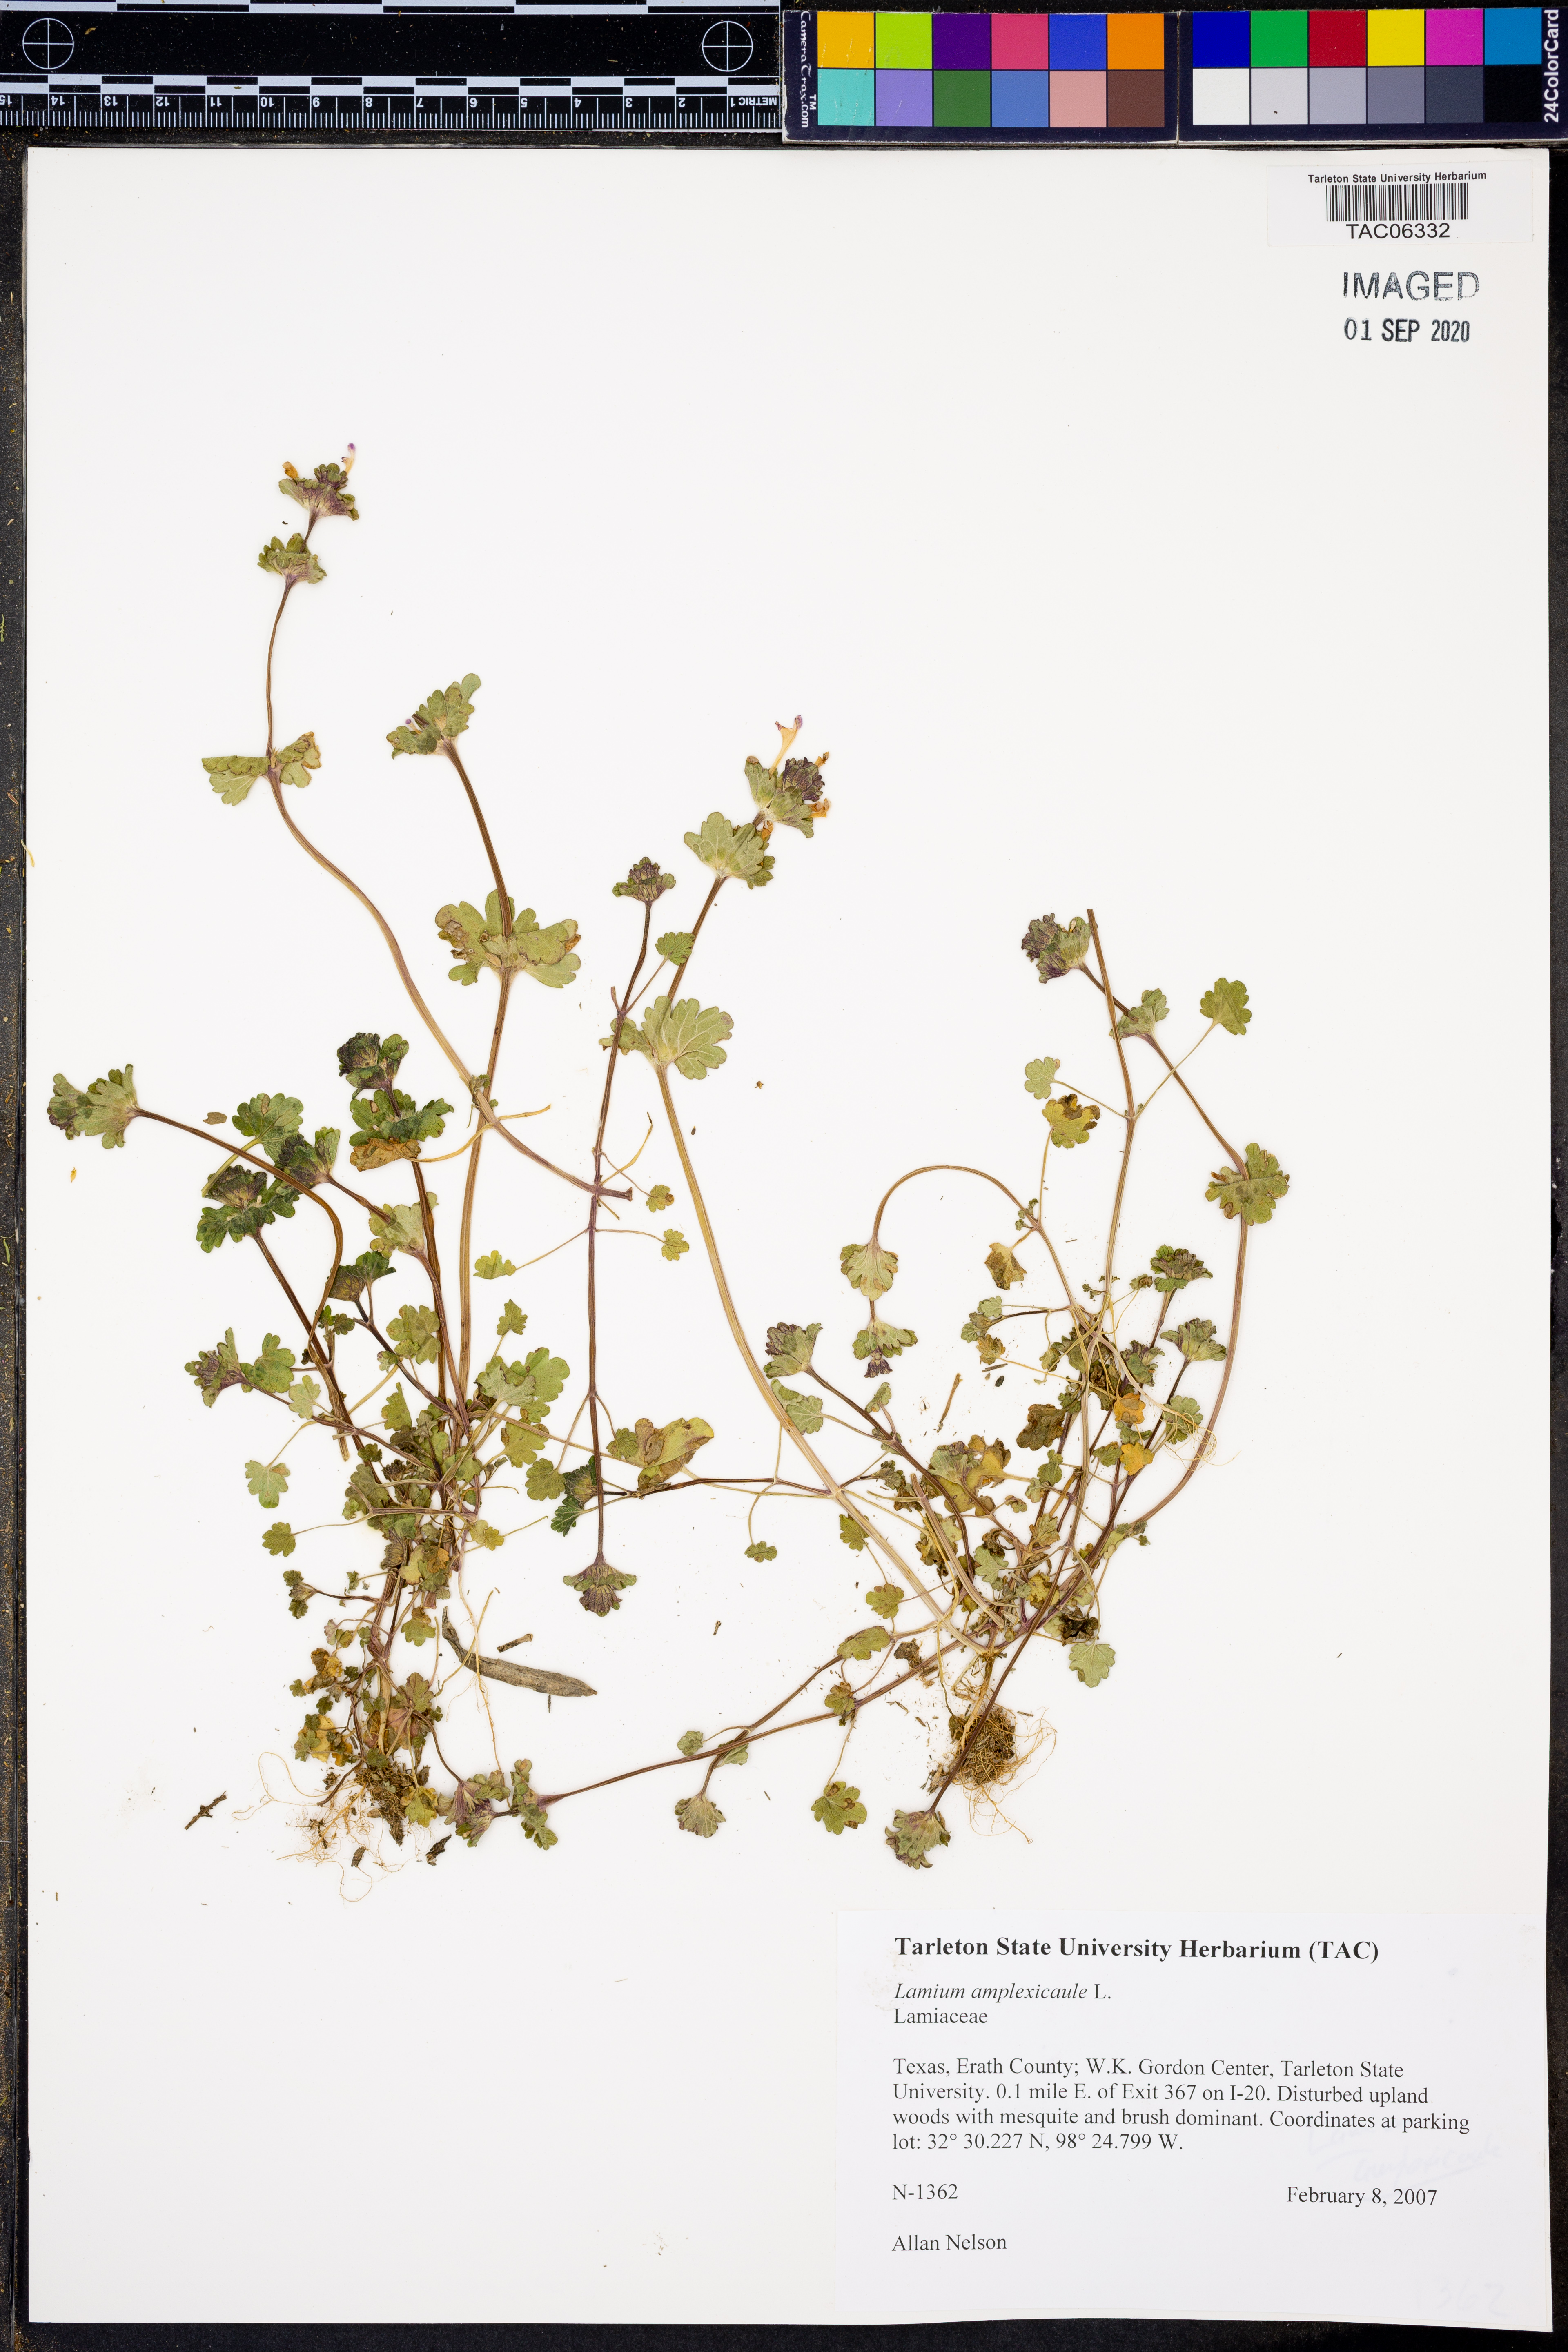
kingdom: Plantae
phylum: Tracheophyta
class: Magnoliopsida
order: Lamiales
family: Lamiaceae
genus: Lamium
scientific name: Lamium amplexicaule
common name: Henbit dead-nettle
